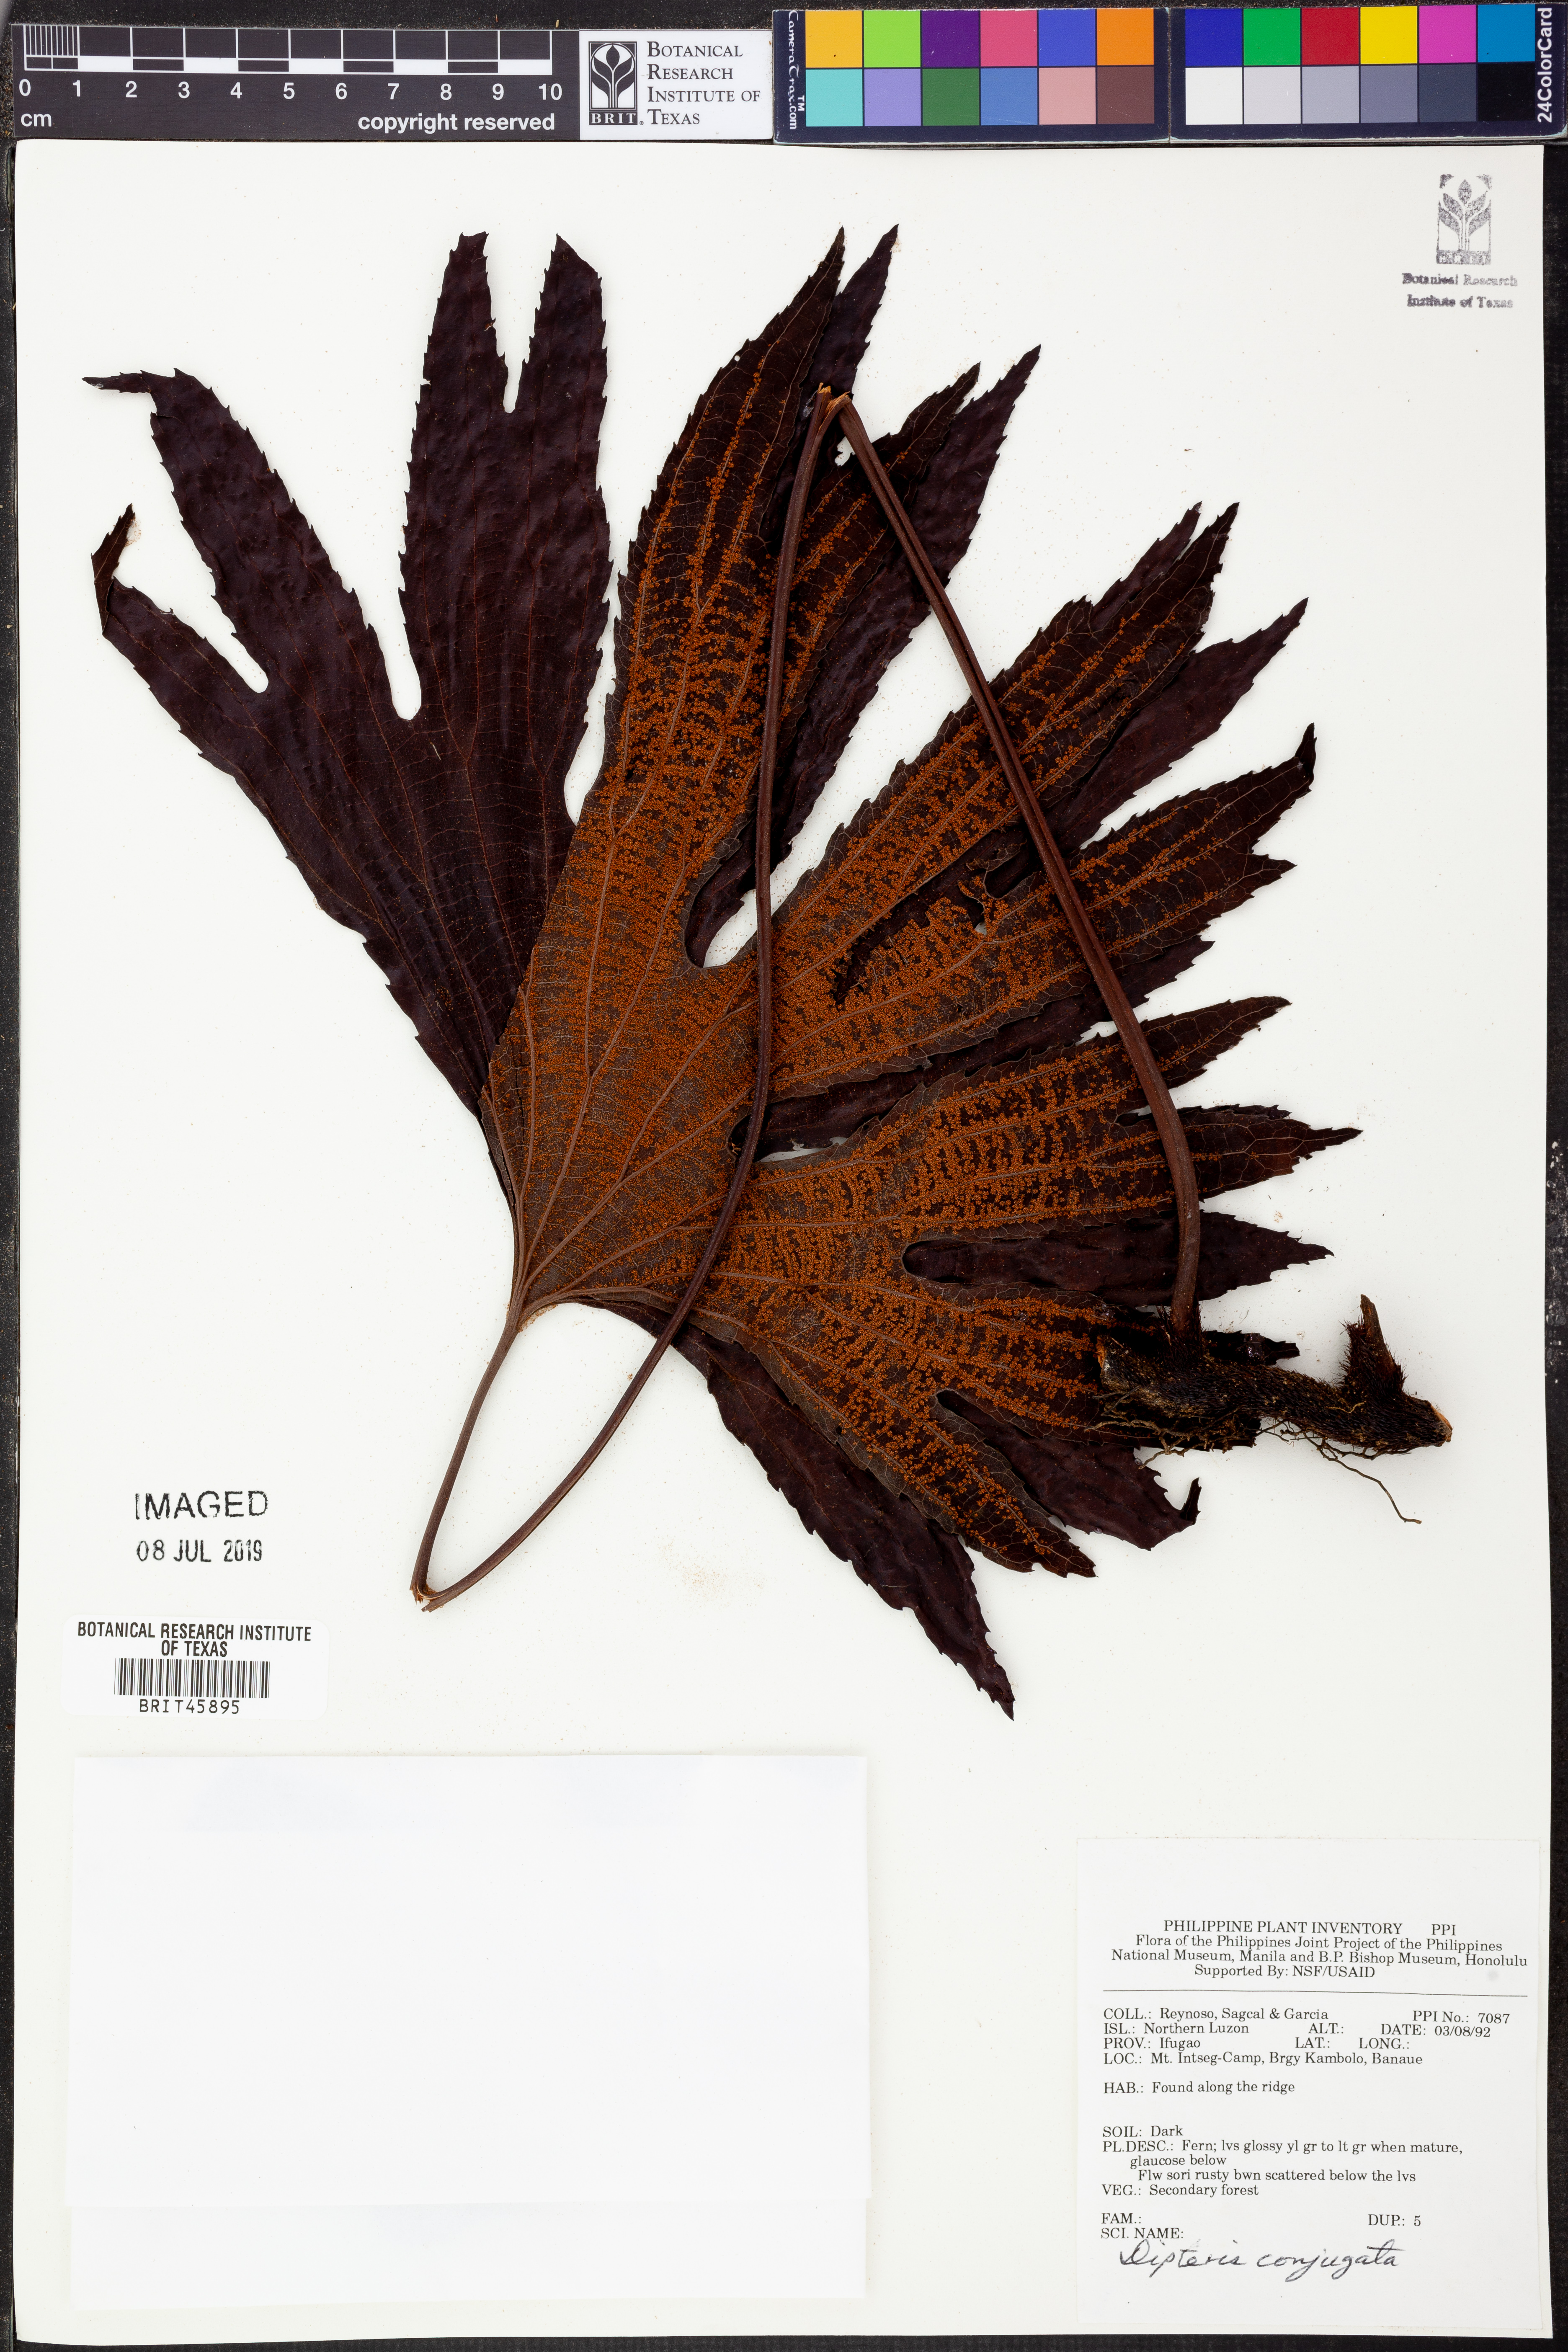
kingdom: Plantae
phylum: Tracheophyta
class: Polypodiopsida
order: Gleicheniales
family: Dipteridaceae
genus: Dipteris
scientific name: Dipteris conjugata
